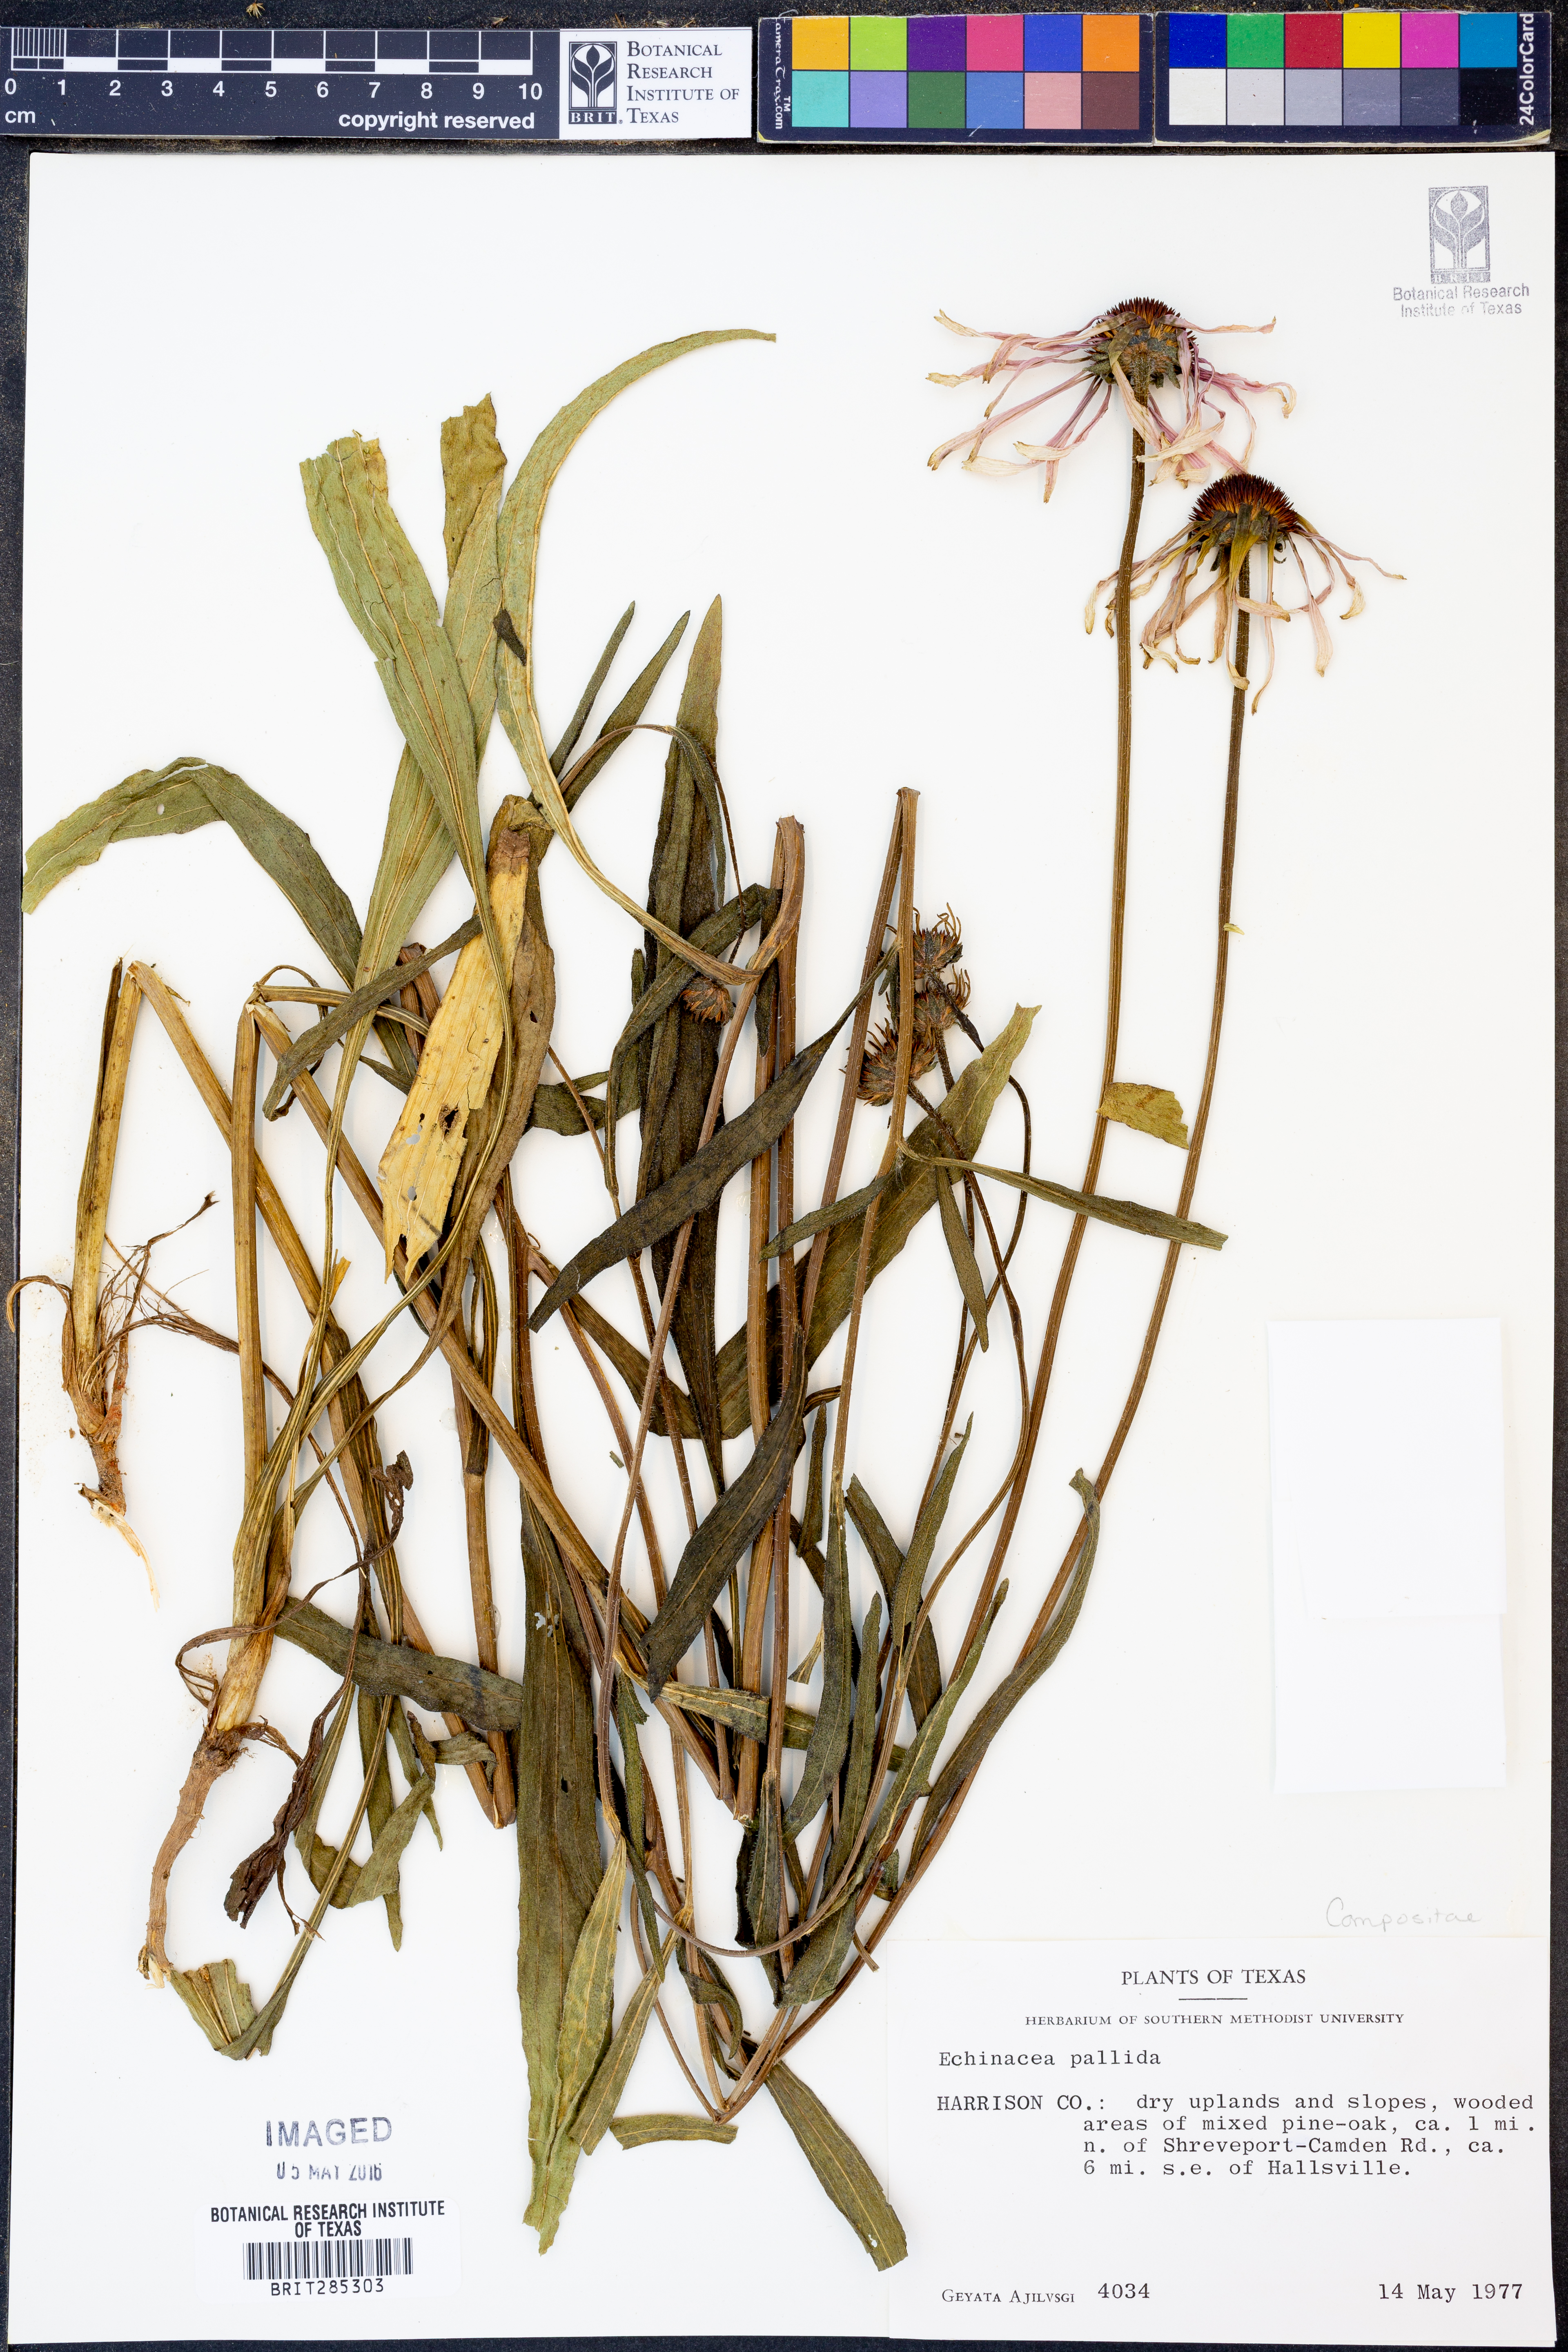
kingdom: Plantae
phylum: Tracheophyta
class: Magnoliopsida
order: Asterales
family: Asteraceae
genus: Echinacea
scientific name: Echinacea pallida
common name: Pale echinacea
